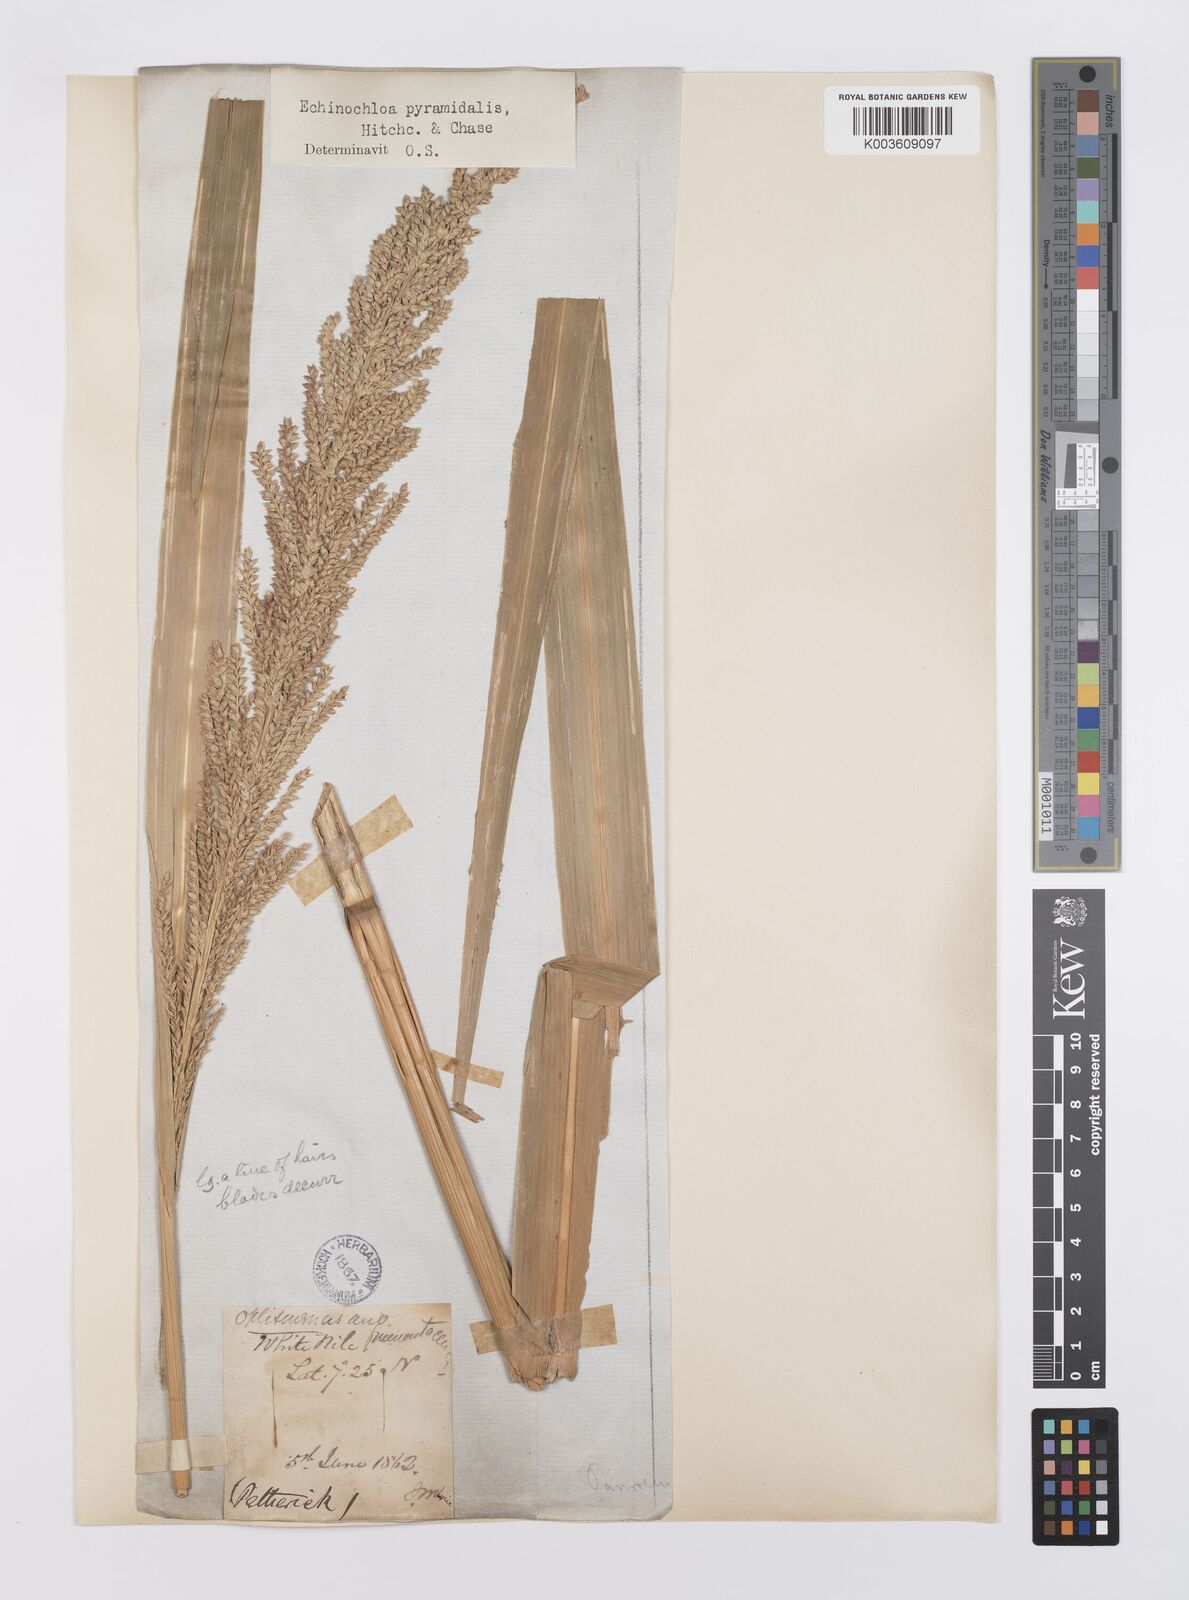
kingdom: Plantae
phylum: Tracheophyta
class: Liliopsida
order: Poales
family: Poaceae
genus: Echinochloa
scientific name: Echinochloa pyramidalis
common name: Antelope grass
